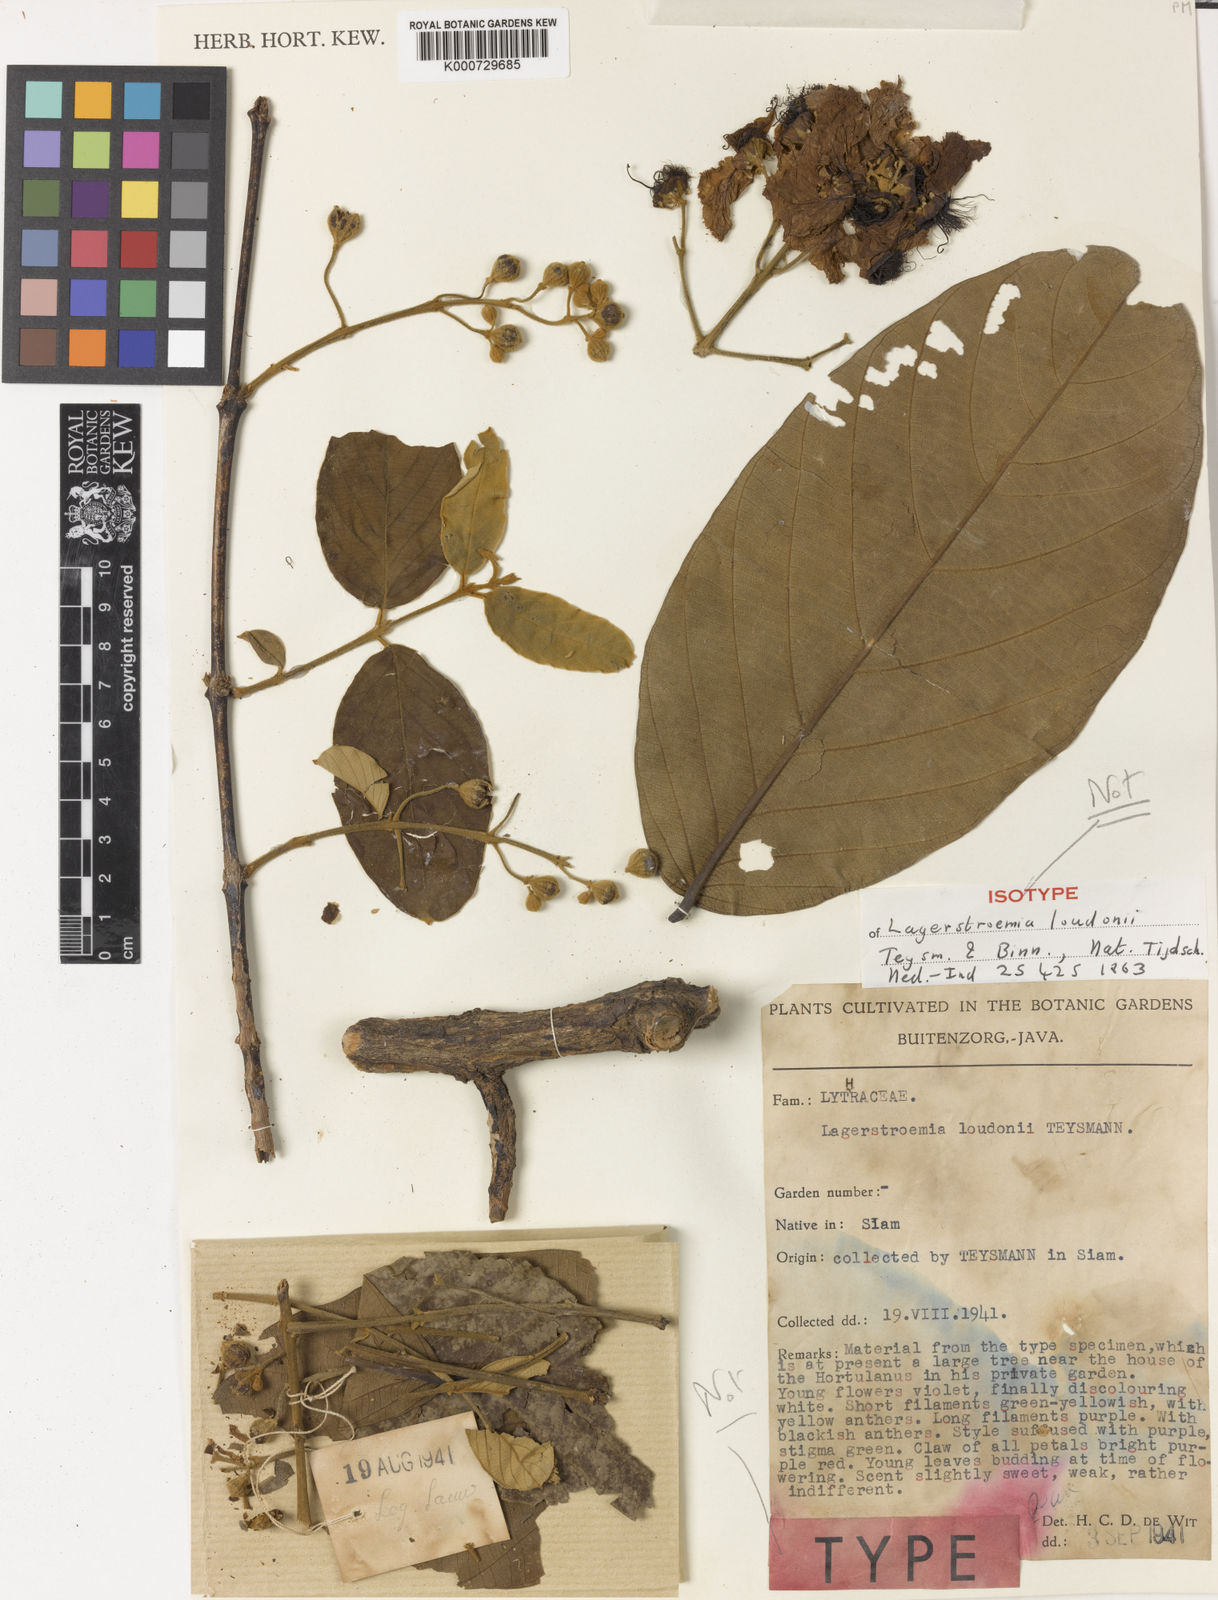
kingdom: Plantae
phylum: Tracheophyta
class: Magnoliopsida
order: Myrtales
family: Lythraceae
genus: Lagerstroemia
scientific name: Lagerstroemia loudonii
